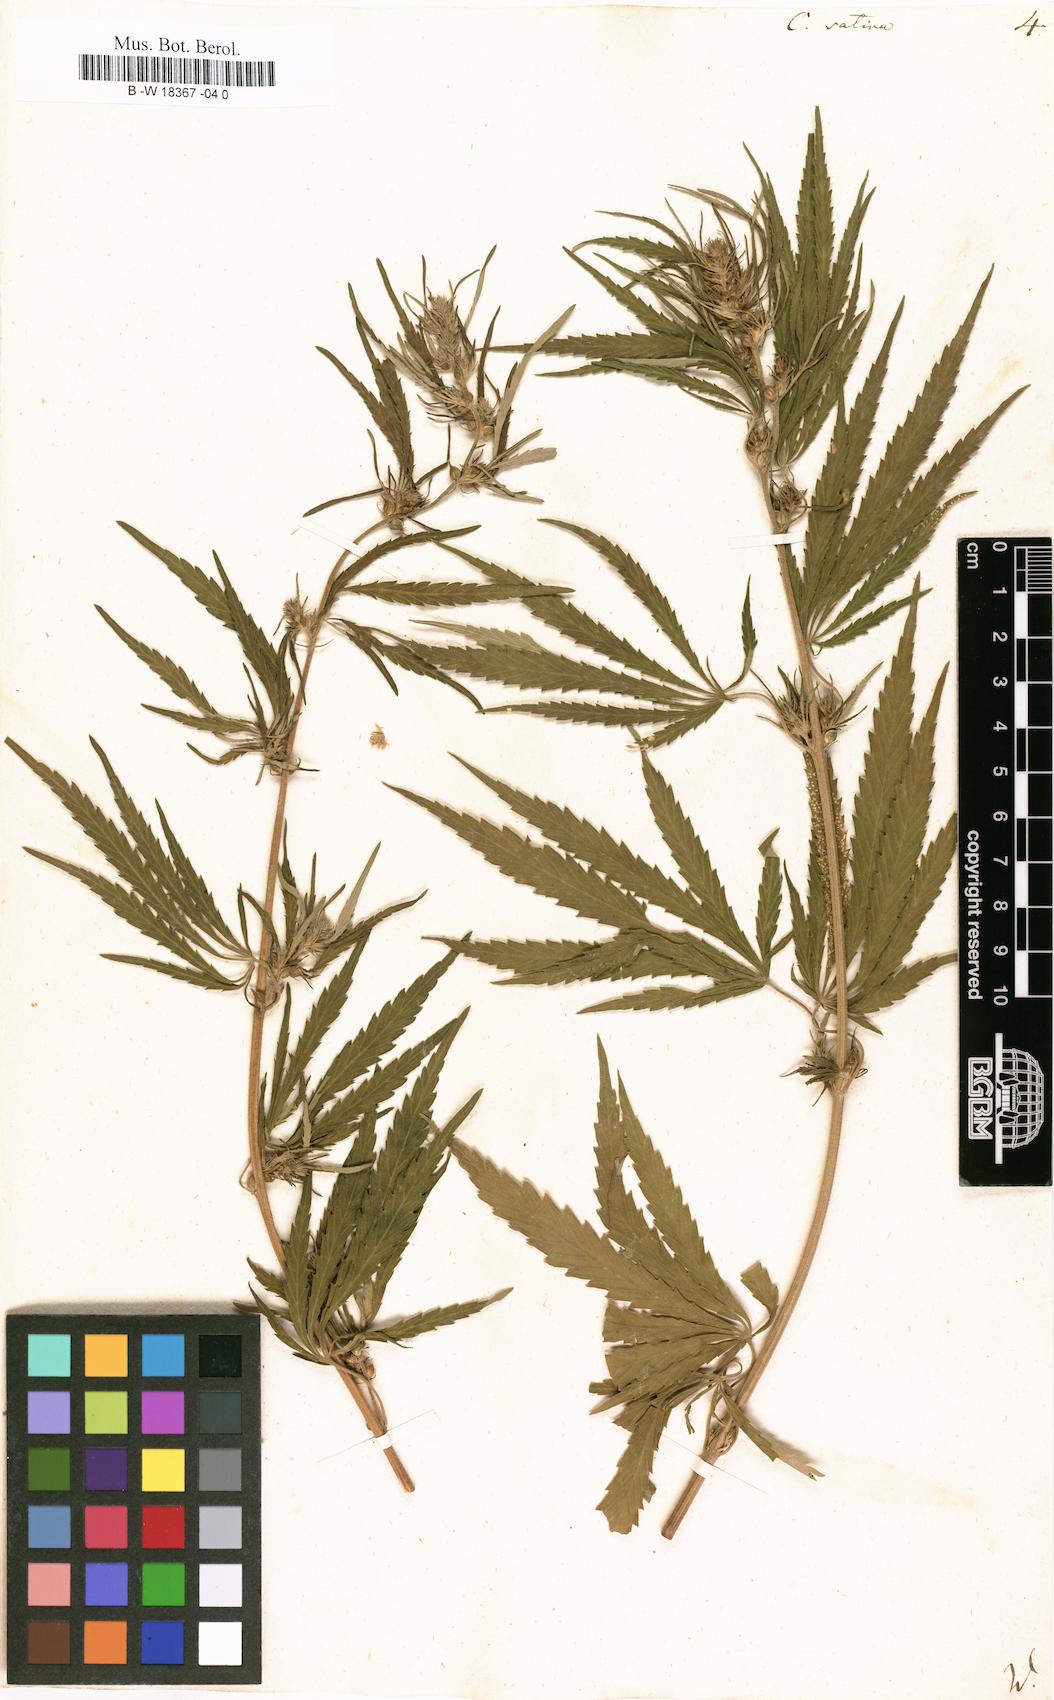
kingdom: Plantae
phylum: Tracheophyta
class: Magnoliopsida
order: Rosales
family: Cannabaceae
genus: Cannabis
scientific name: Cannabis sativa
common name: Hemp
